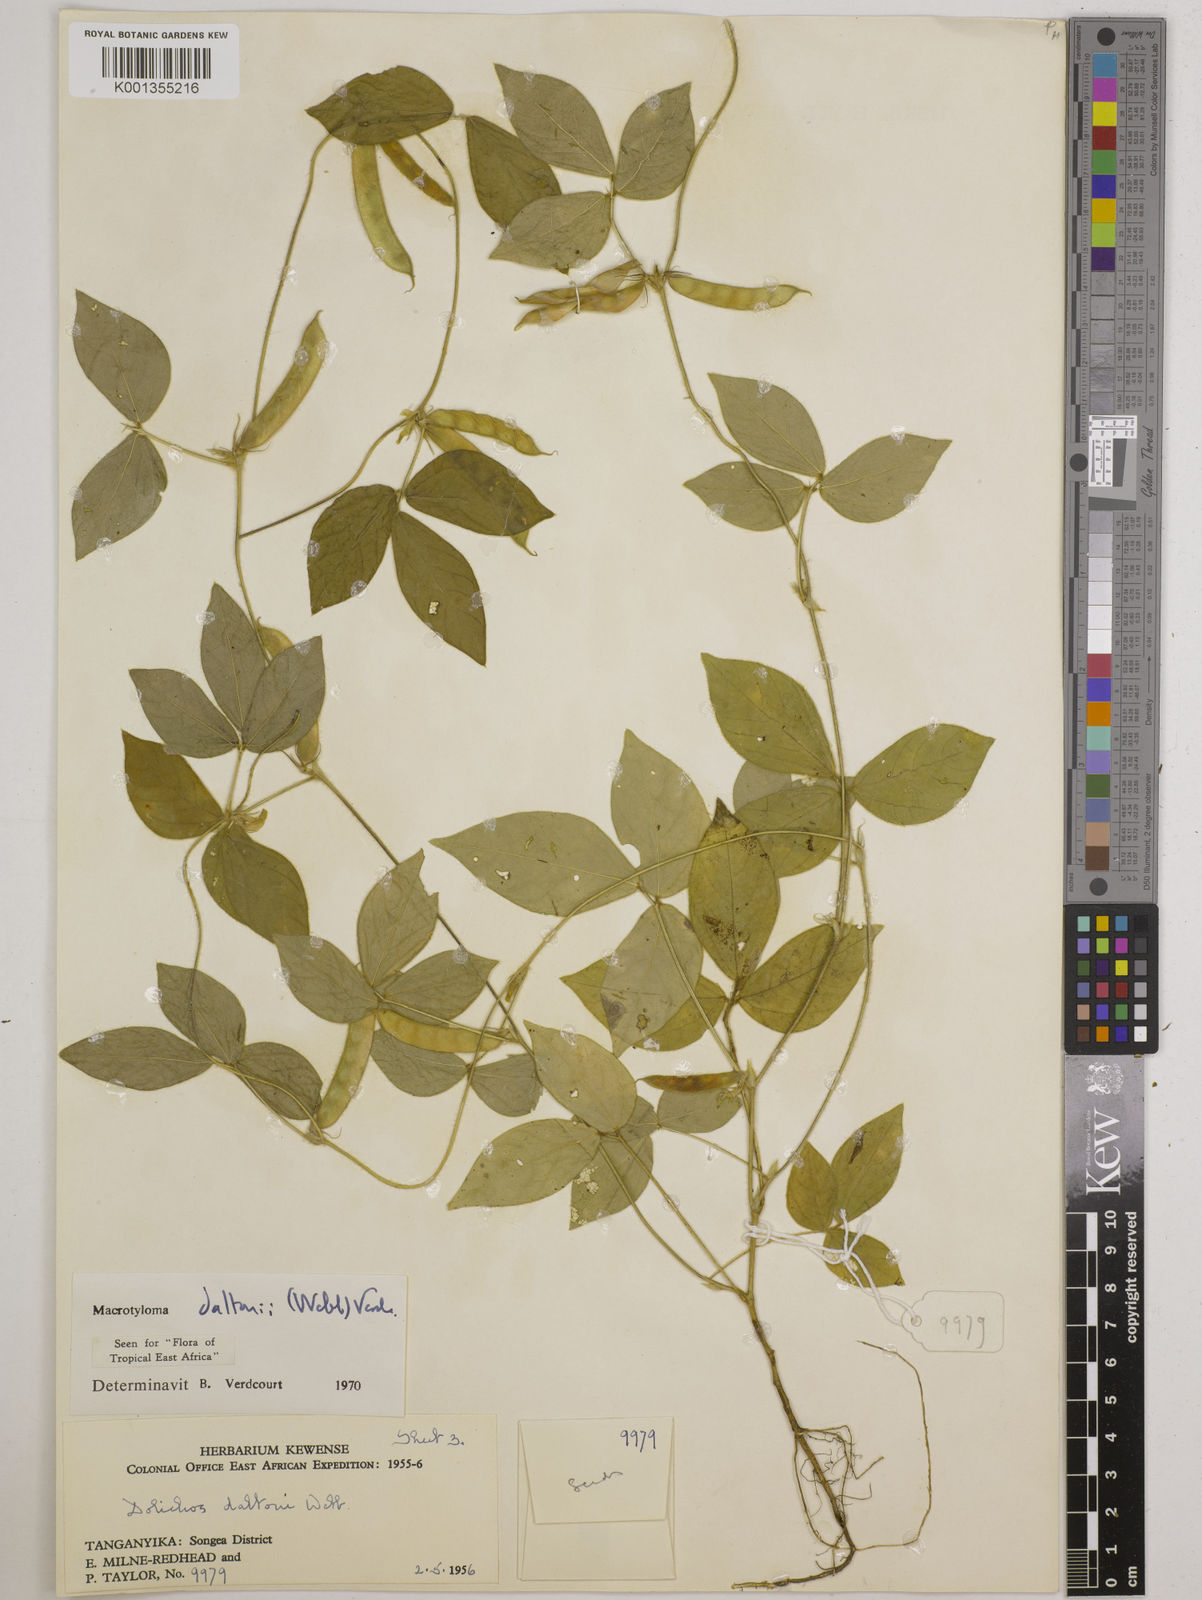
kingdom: Plantae
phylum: Tracheophyta
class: Magnoliopsida
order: Fabales
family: Fabaceae
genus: Macrotyloma
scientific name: Macrotyloma daltonii
